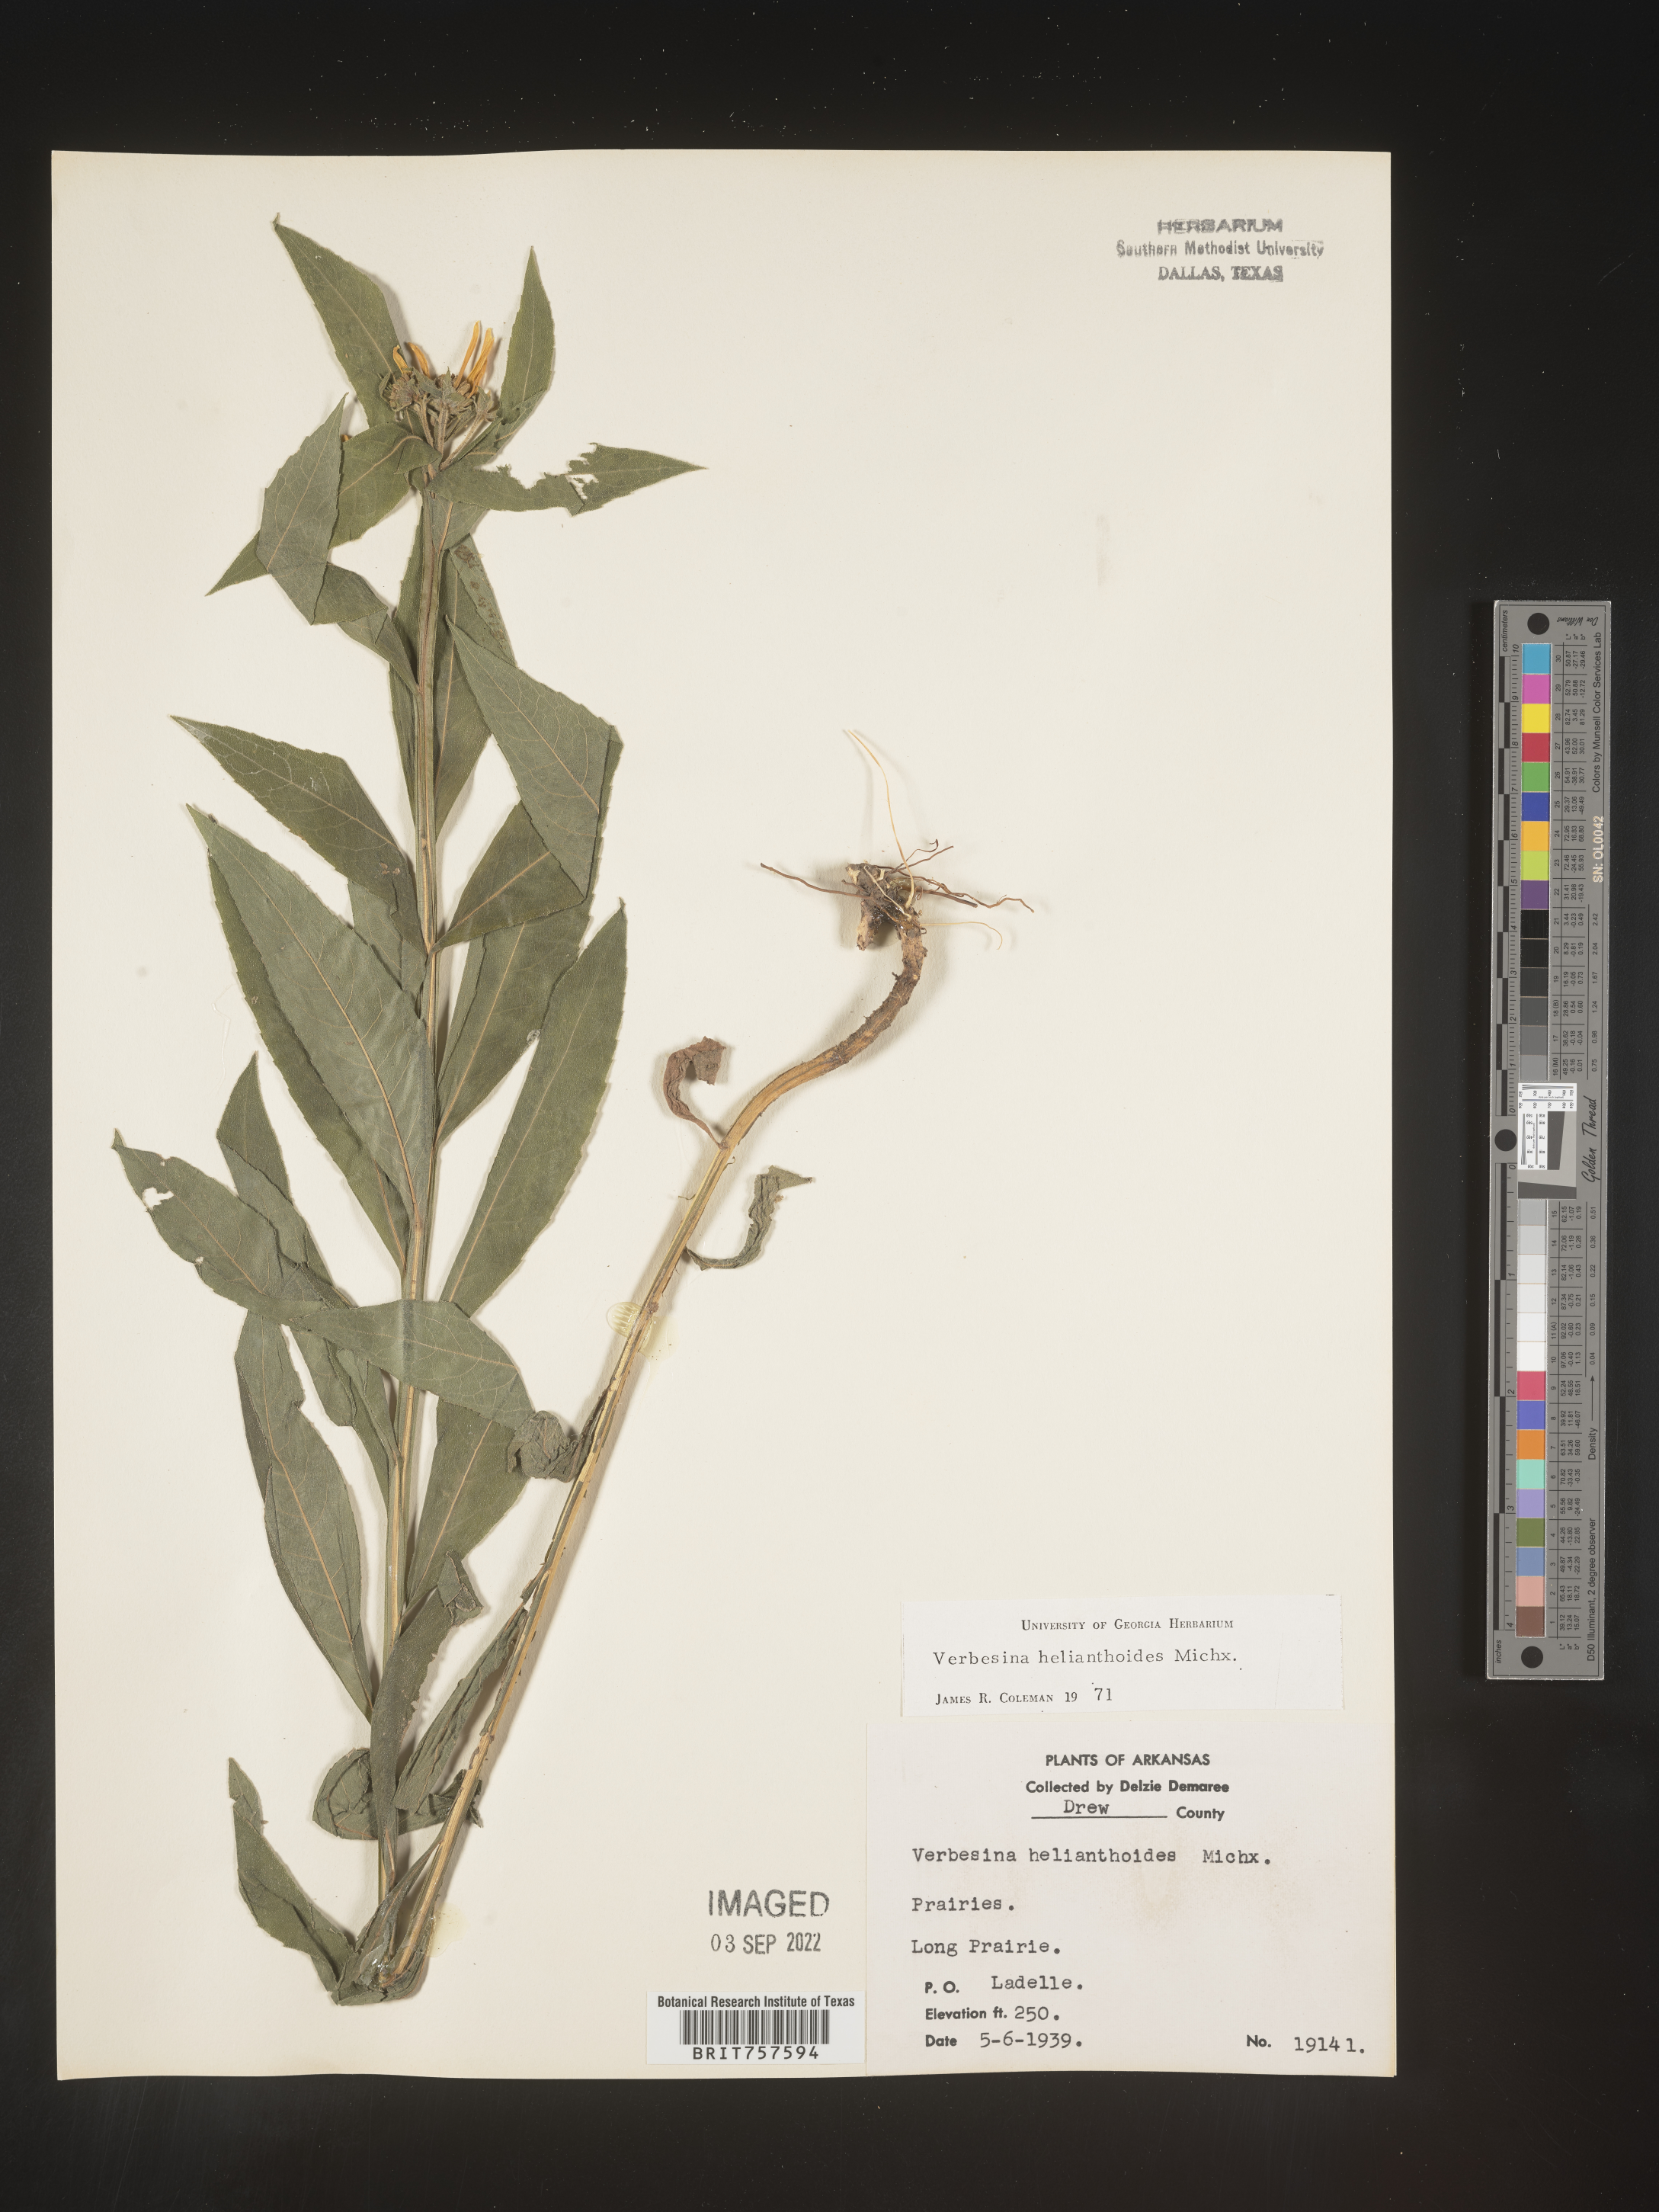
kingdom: Plantae
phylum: Tracheophyta
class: Magnoliopsida
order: Asterales
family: Asteraceae
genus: Verbesina
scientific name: Verbesina helianthoides
